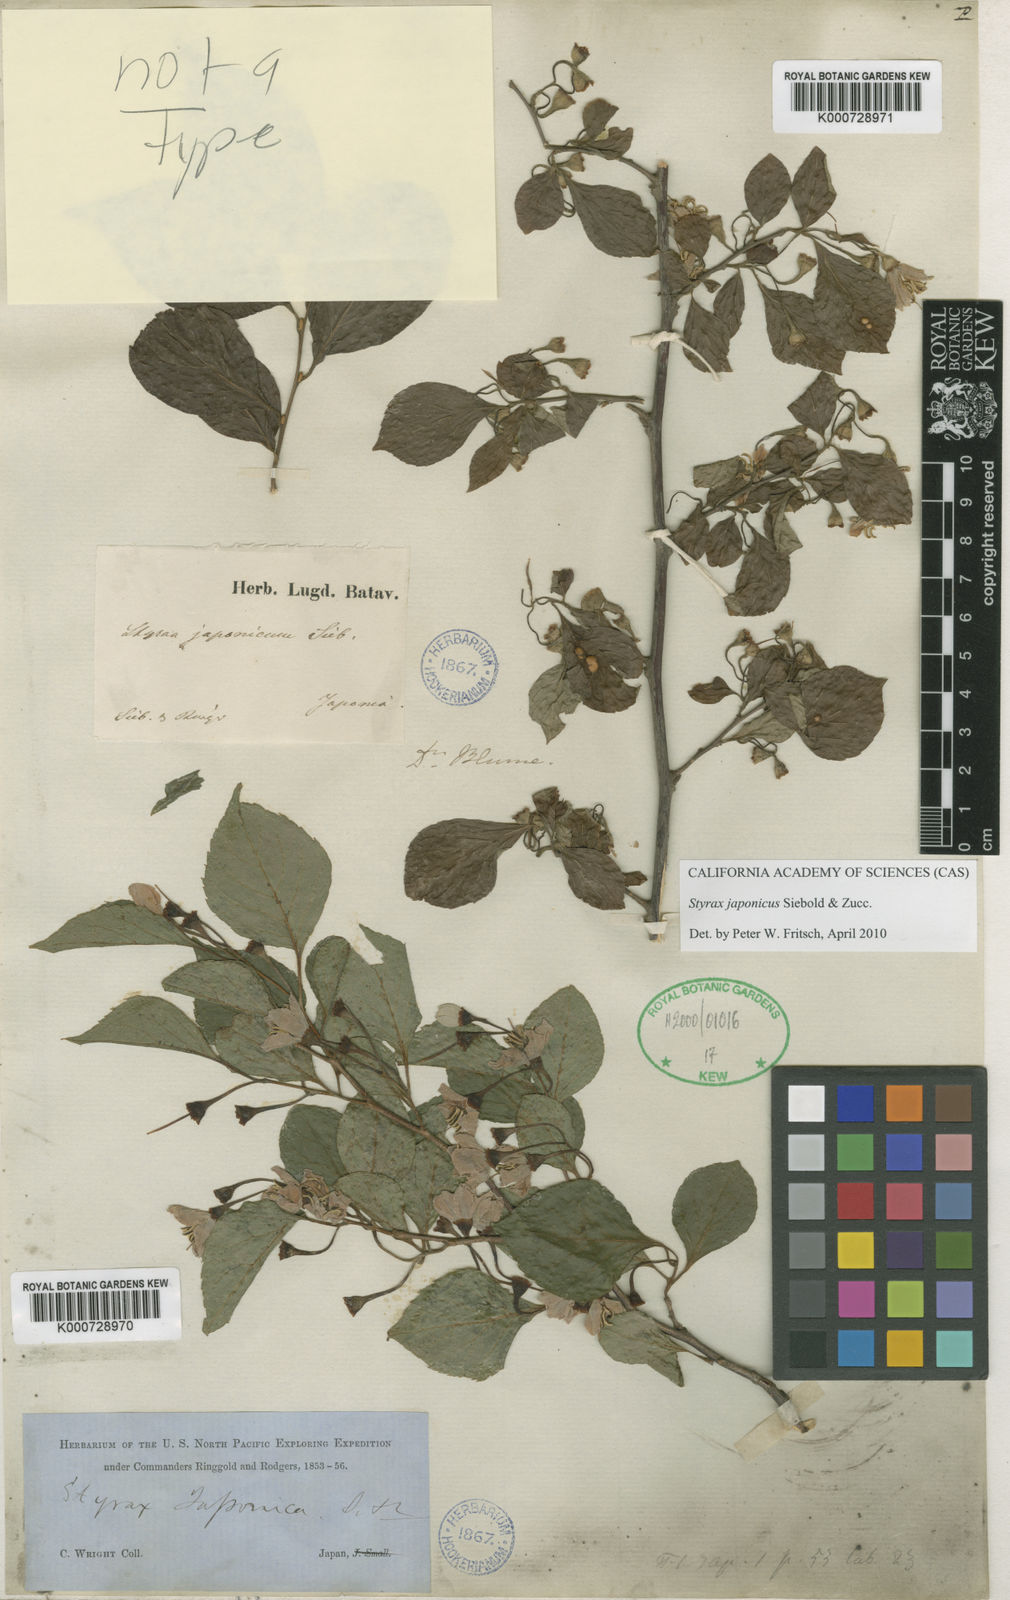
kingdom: Plantae
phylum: Tracheophyta
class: Magnoliopsida
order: Ericales
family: Styracaceae
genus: Styrax
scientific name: Styrax japonicus
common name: Japanese snowbell
